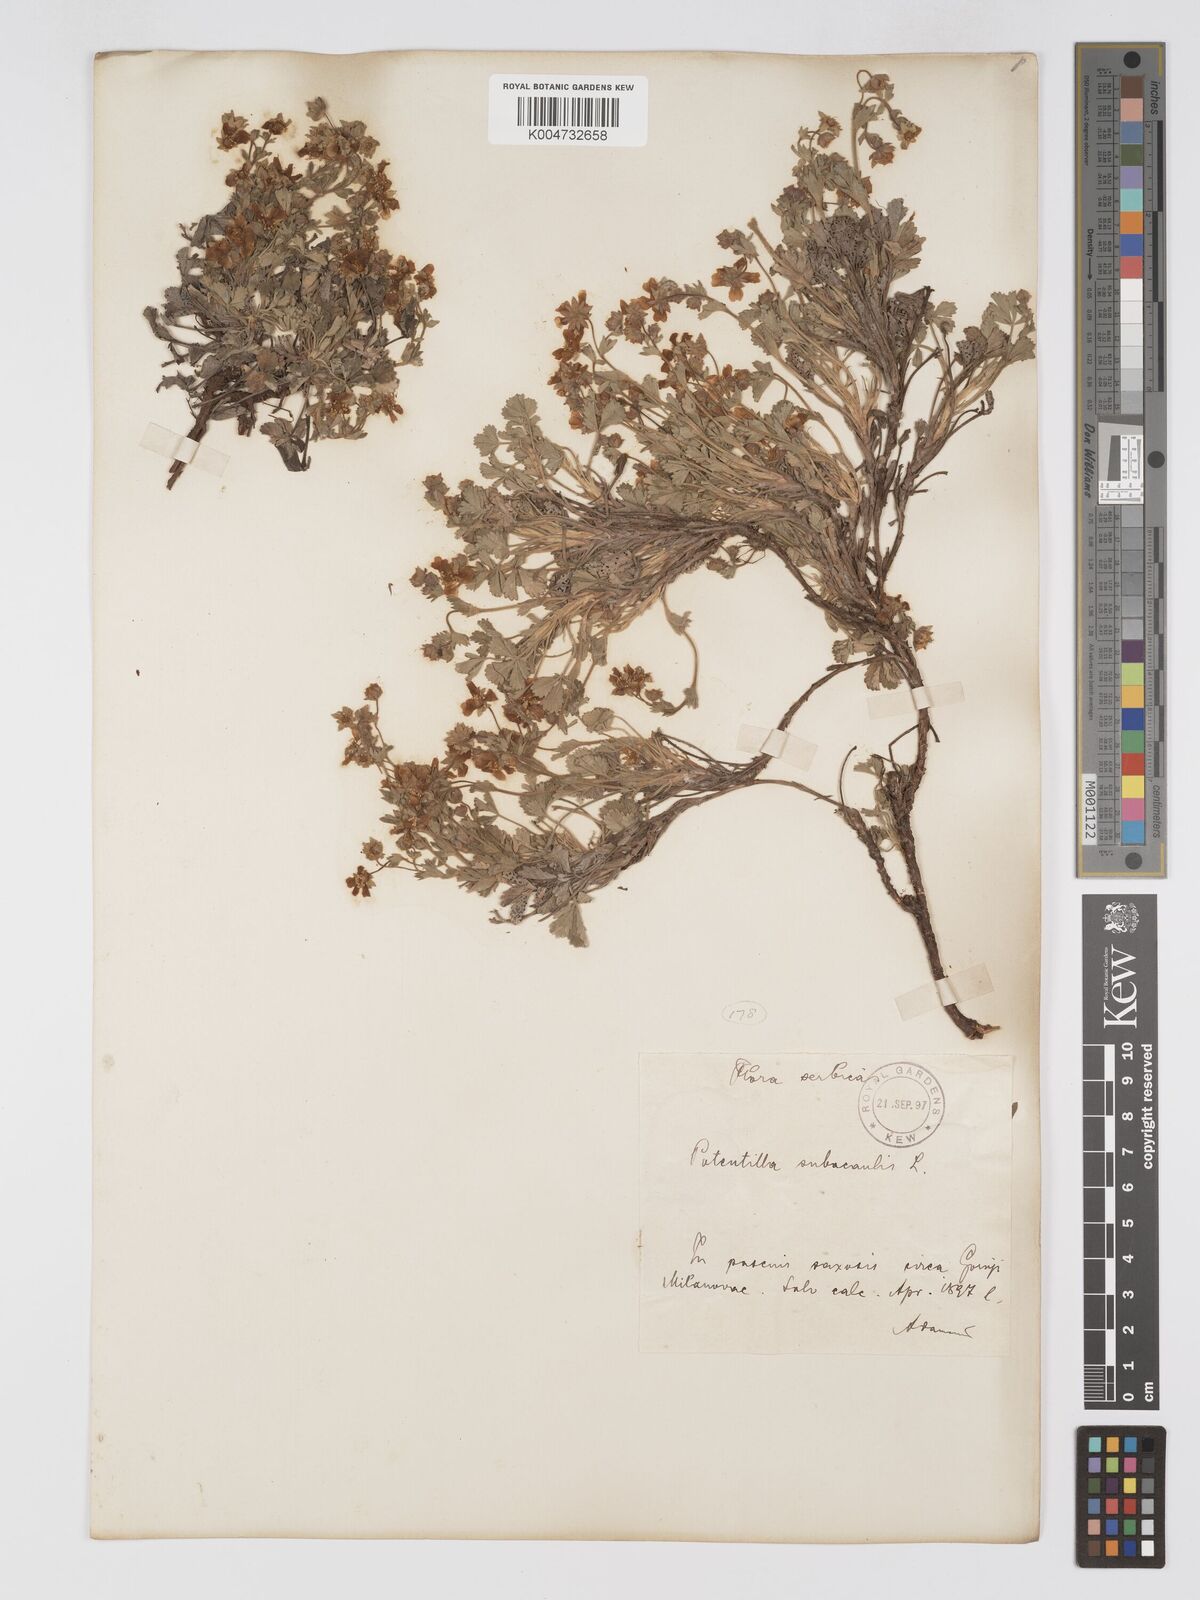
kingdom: Plantae
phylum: Tracheophyta
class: Magnoliopsida
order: Rosales
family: Rosaceae
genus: Potentilla
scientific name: Potentilla cinerea
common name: Ashy cinquefoil
